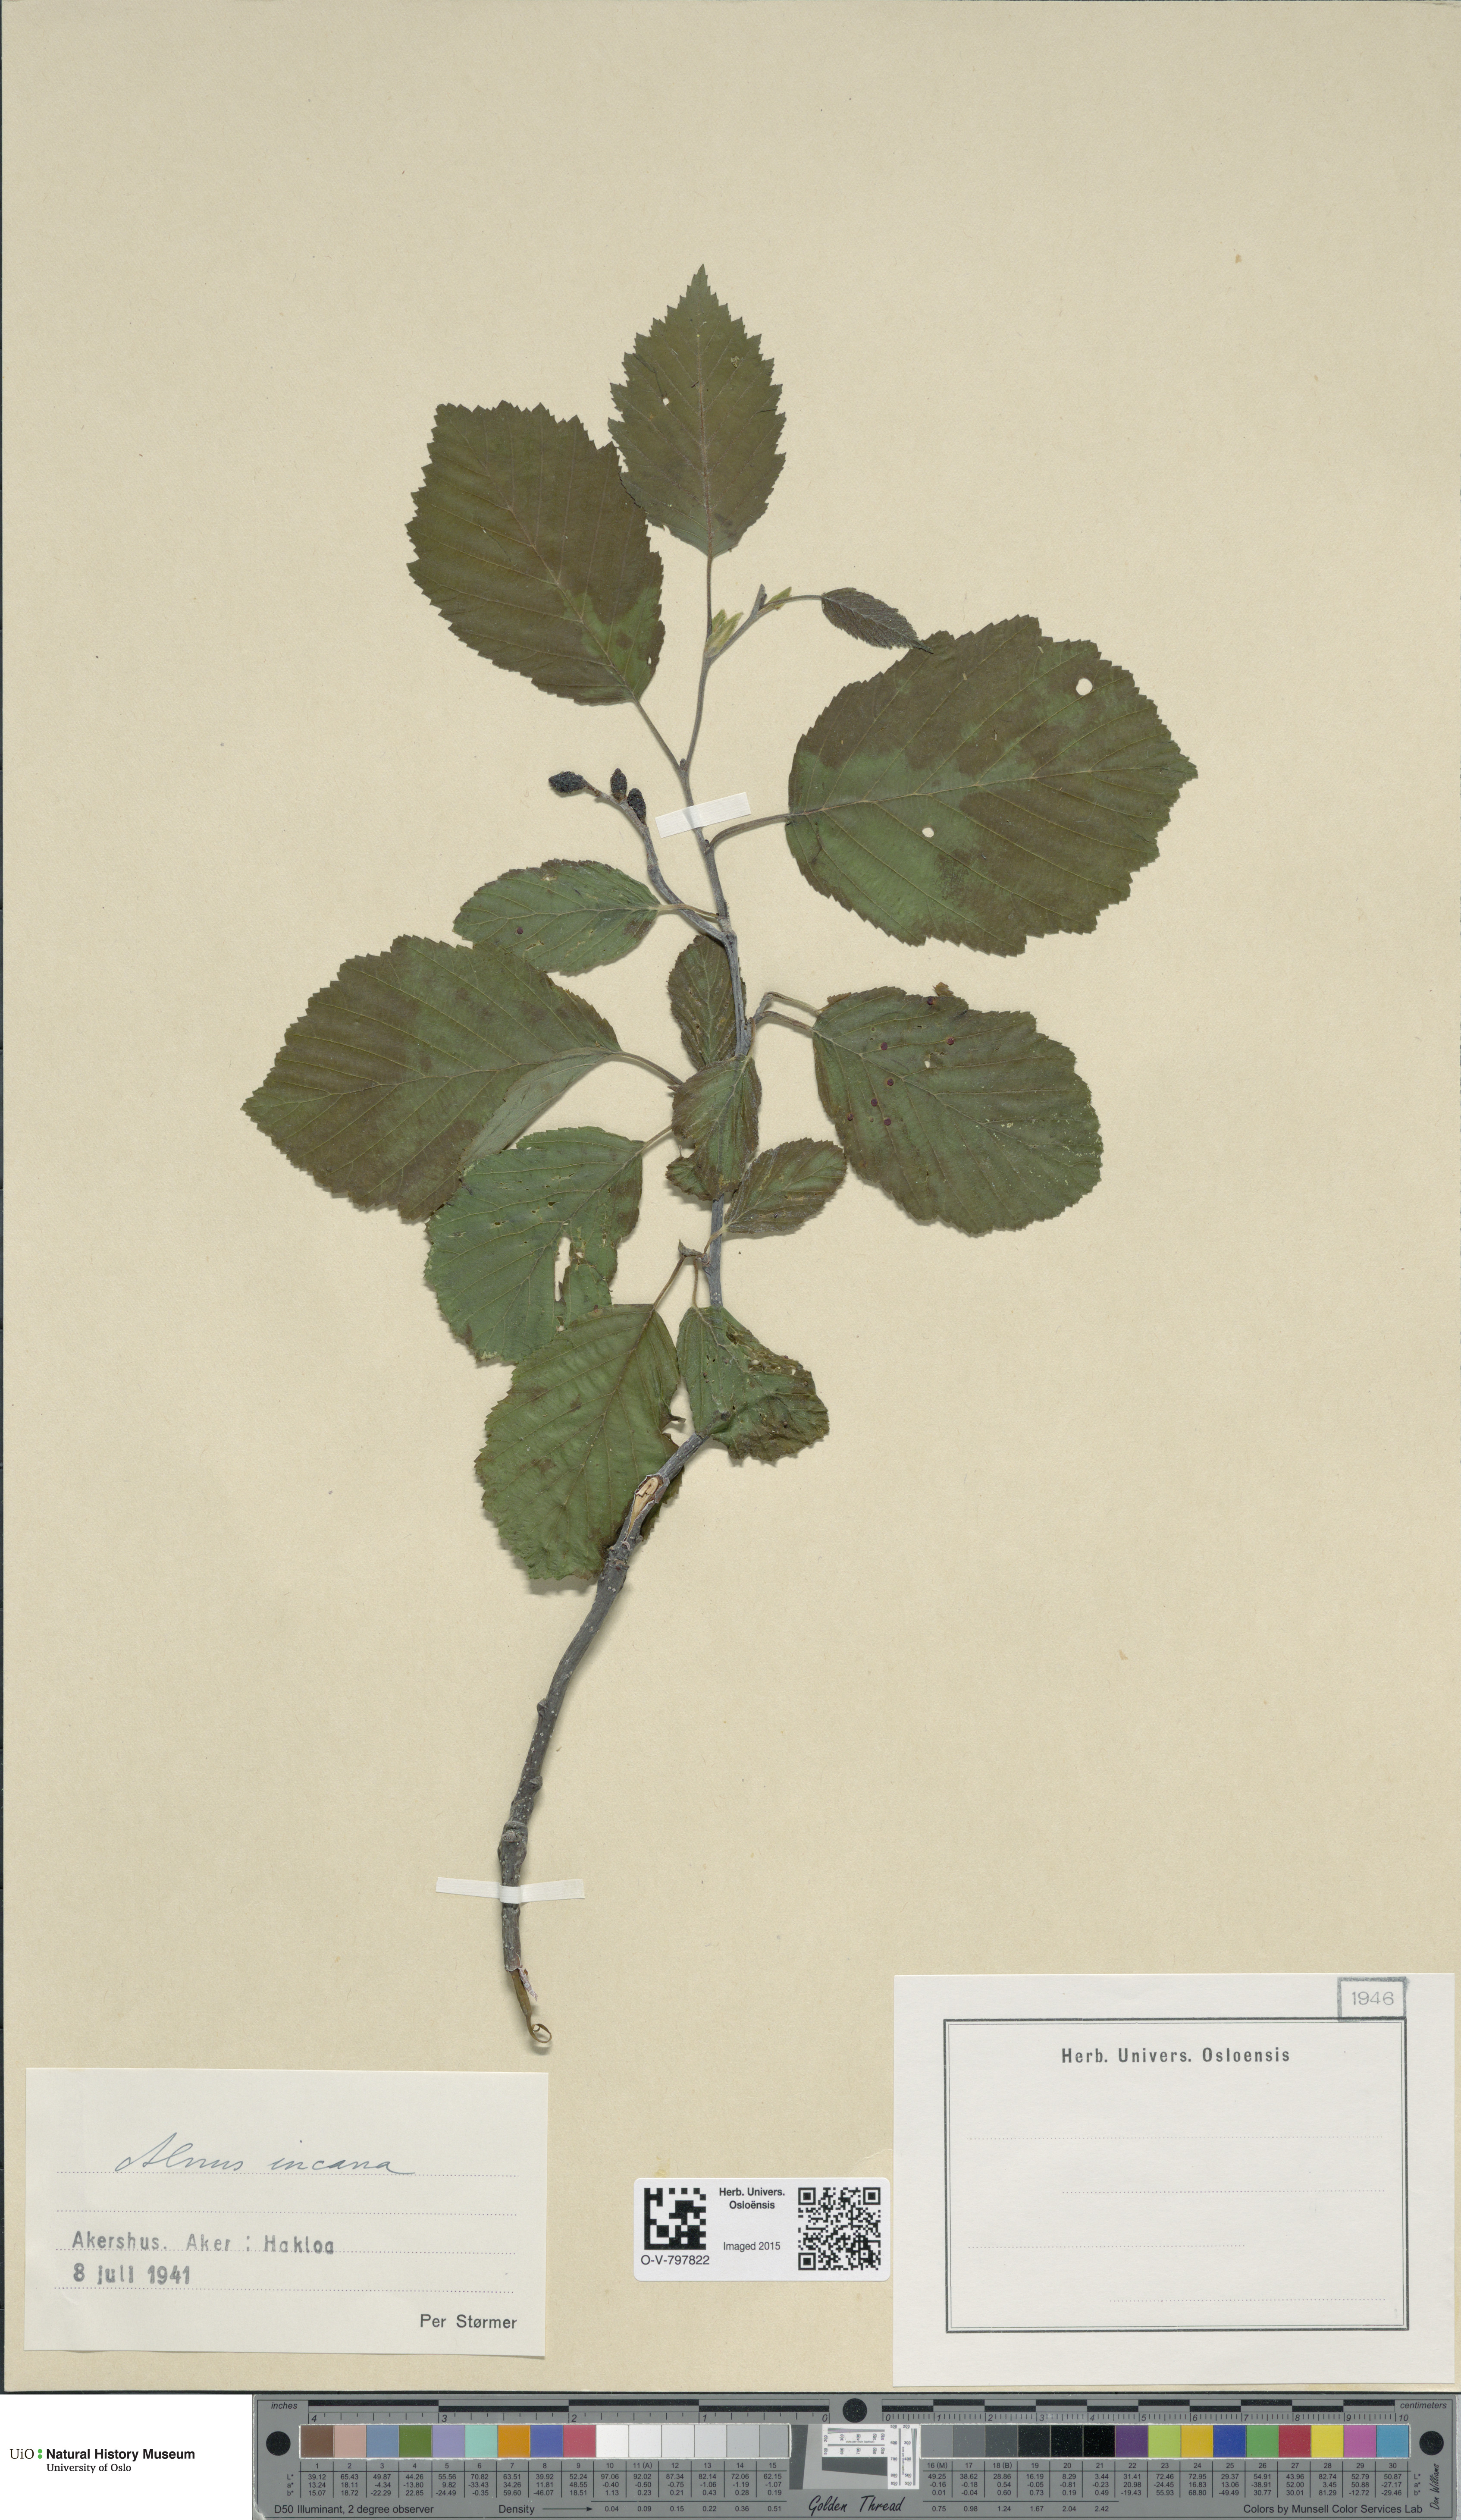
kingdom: Plantae
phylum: Tracheophyta
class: Magnoliopsida
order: Fagales
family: Betulaceae
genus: Alnus
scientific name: Alnus incana
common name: Grey alder
